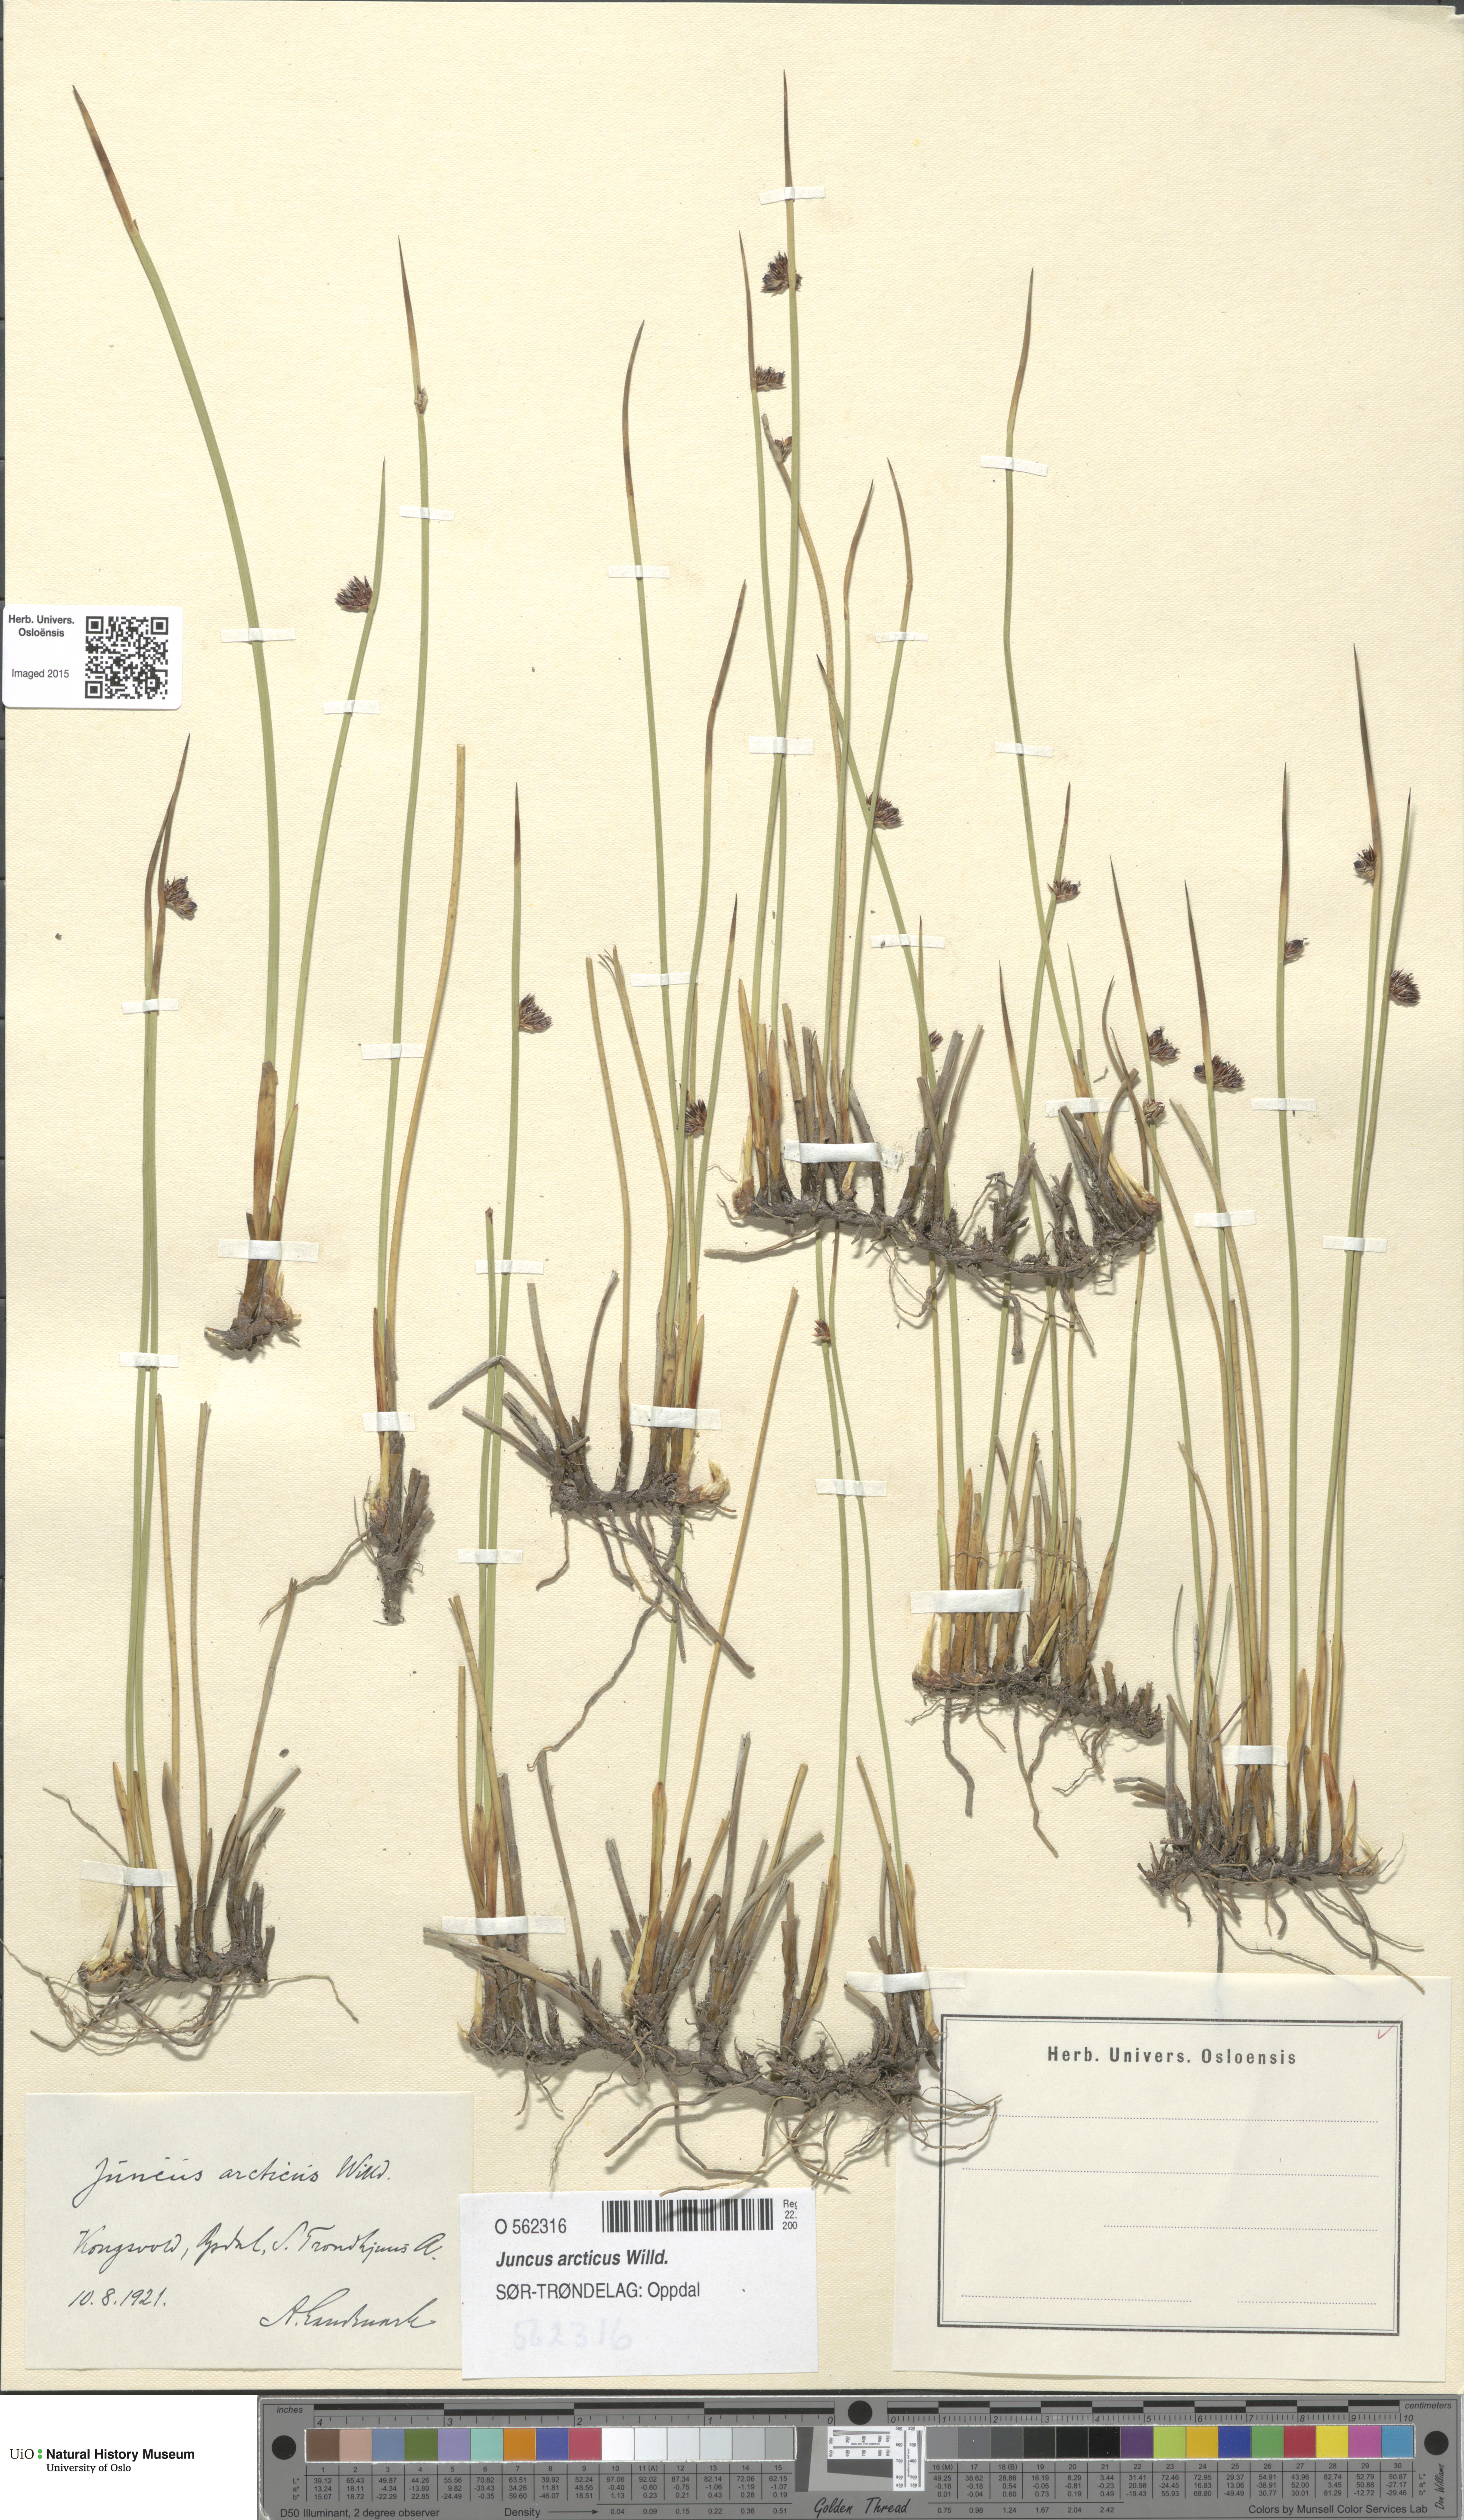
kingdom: Plantae
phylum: Tracheophyta
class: Liliopsida
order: Poales
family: Juncaceae
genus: Juncus
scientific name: Juncus arcticus
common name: Arctic rush
